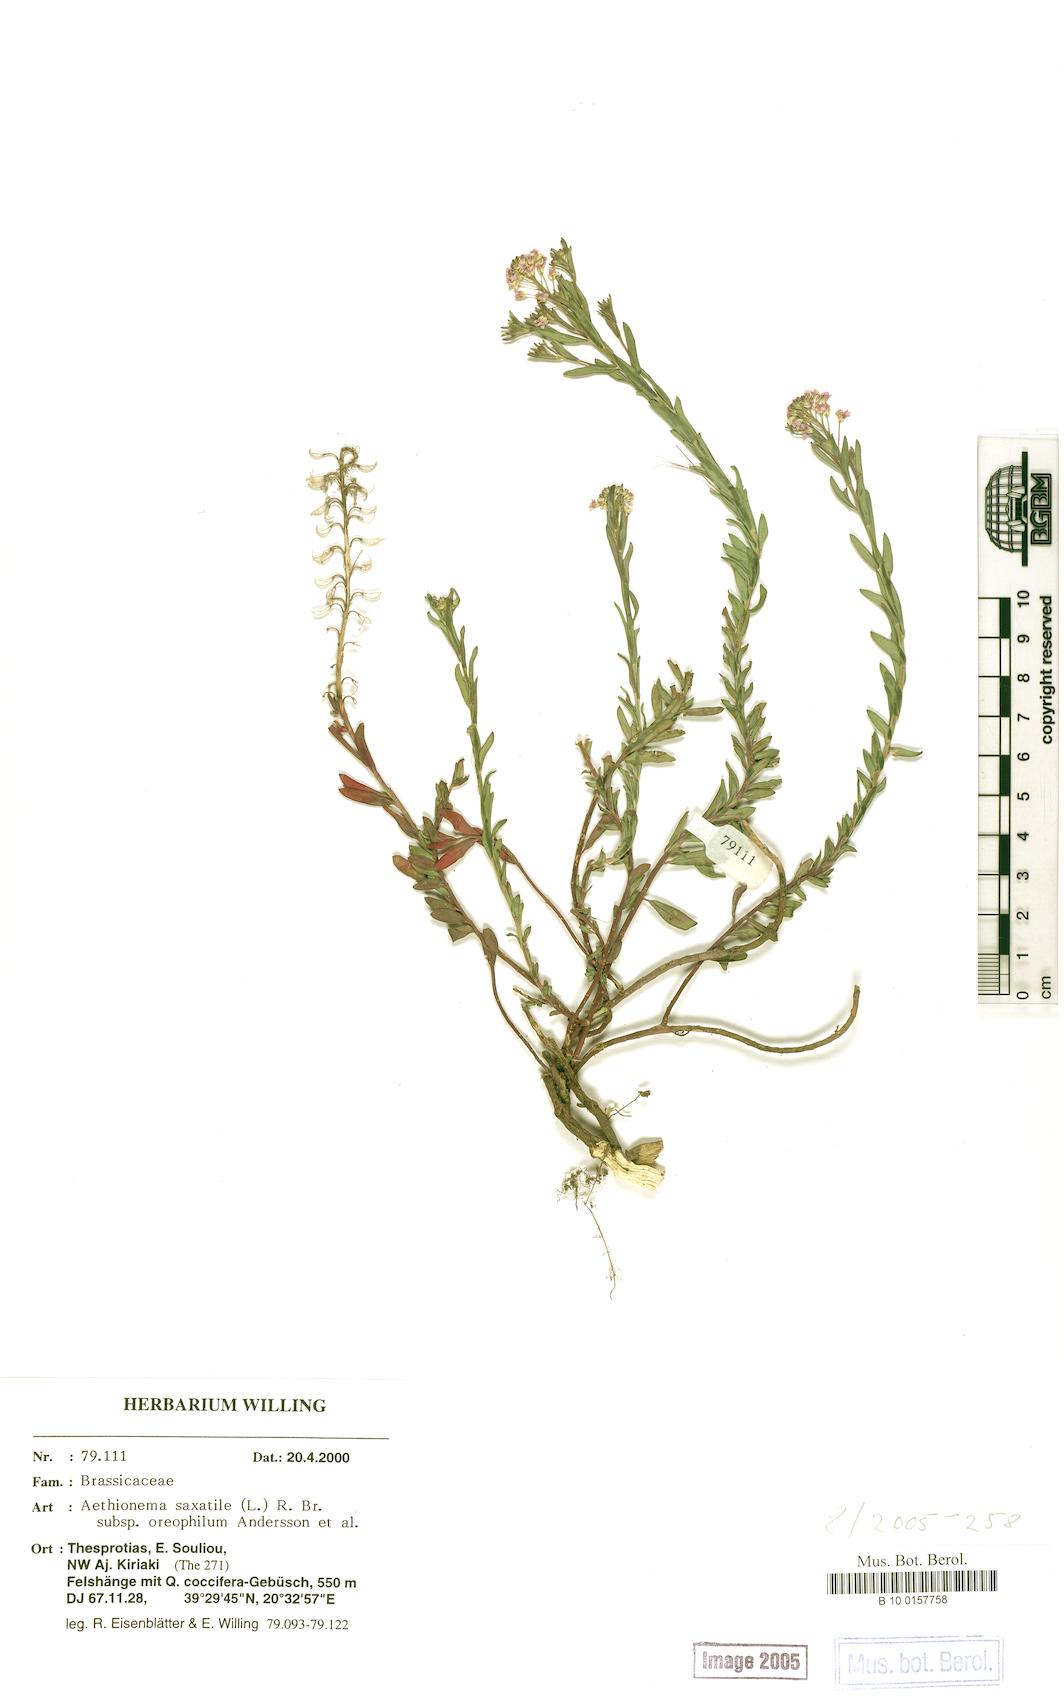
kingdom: Plantae
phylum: Tracheophyta
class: Magnoliopsida
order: Brassicales
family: Brassicaceae
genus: Aethionema
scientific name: Aethionema saxatile
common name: Burnt candytuft
